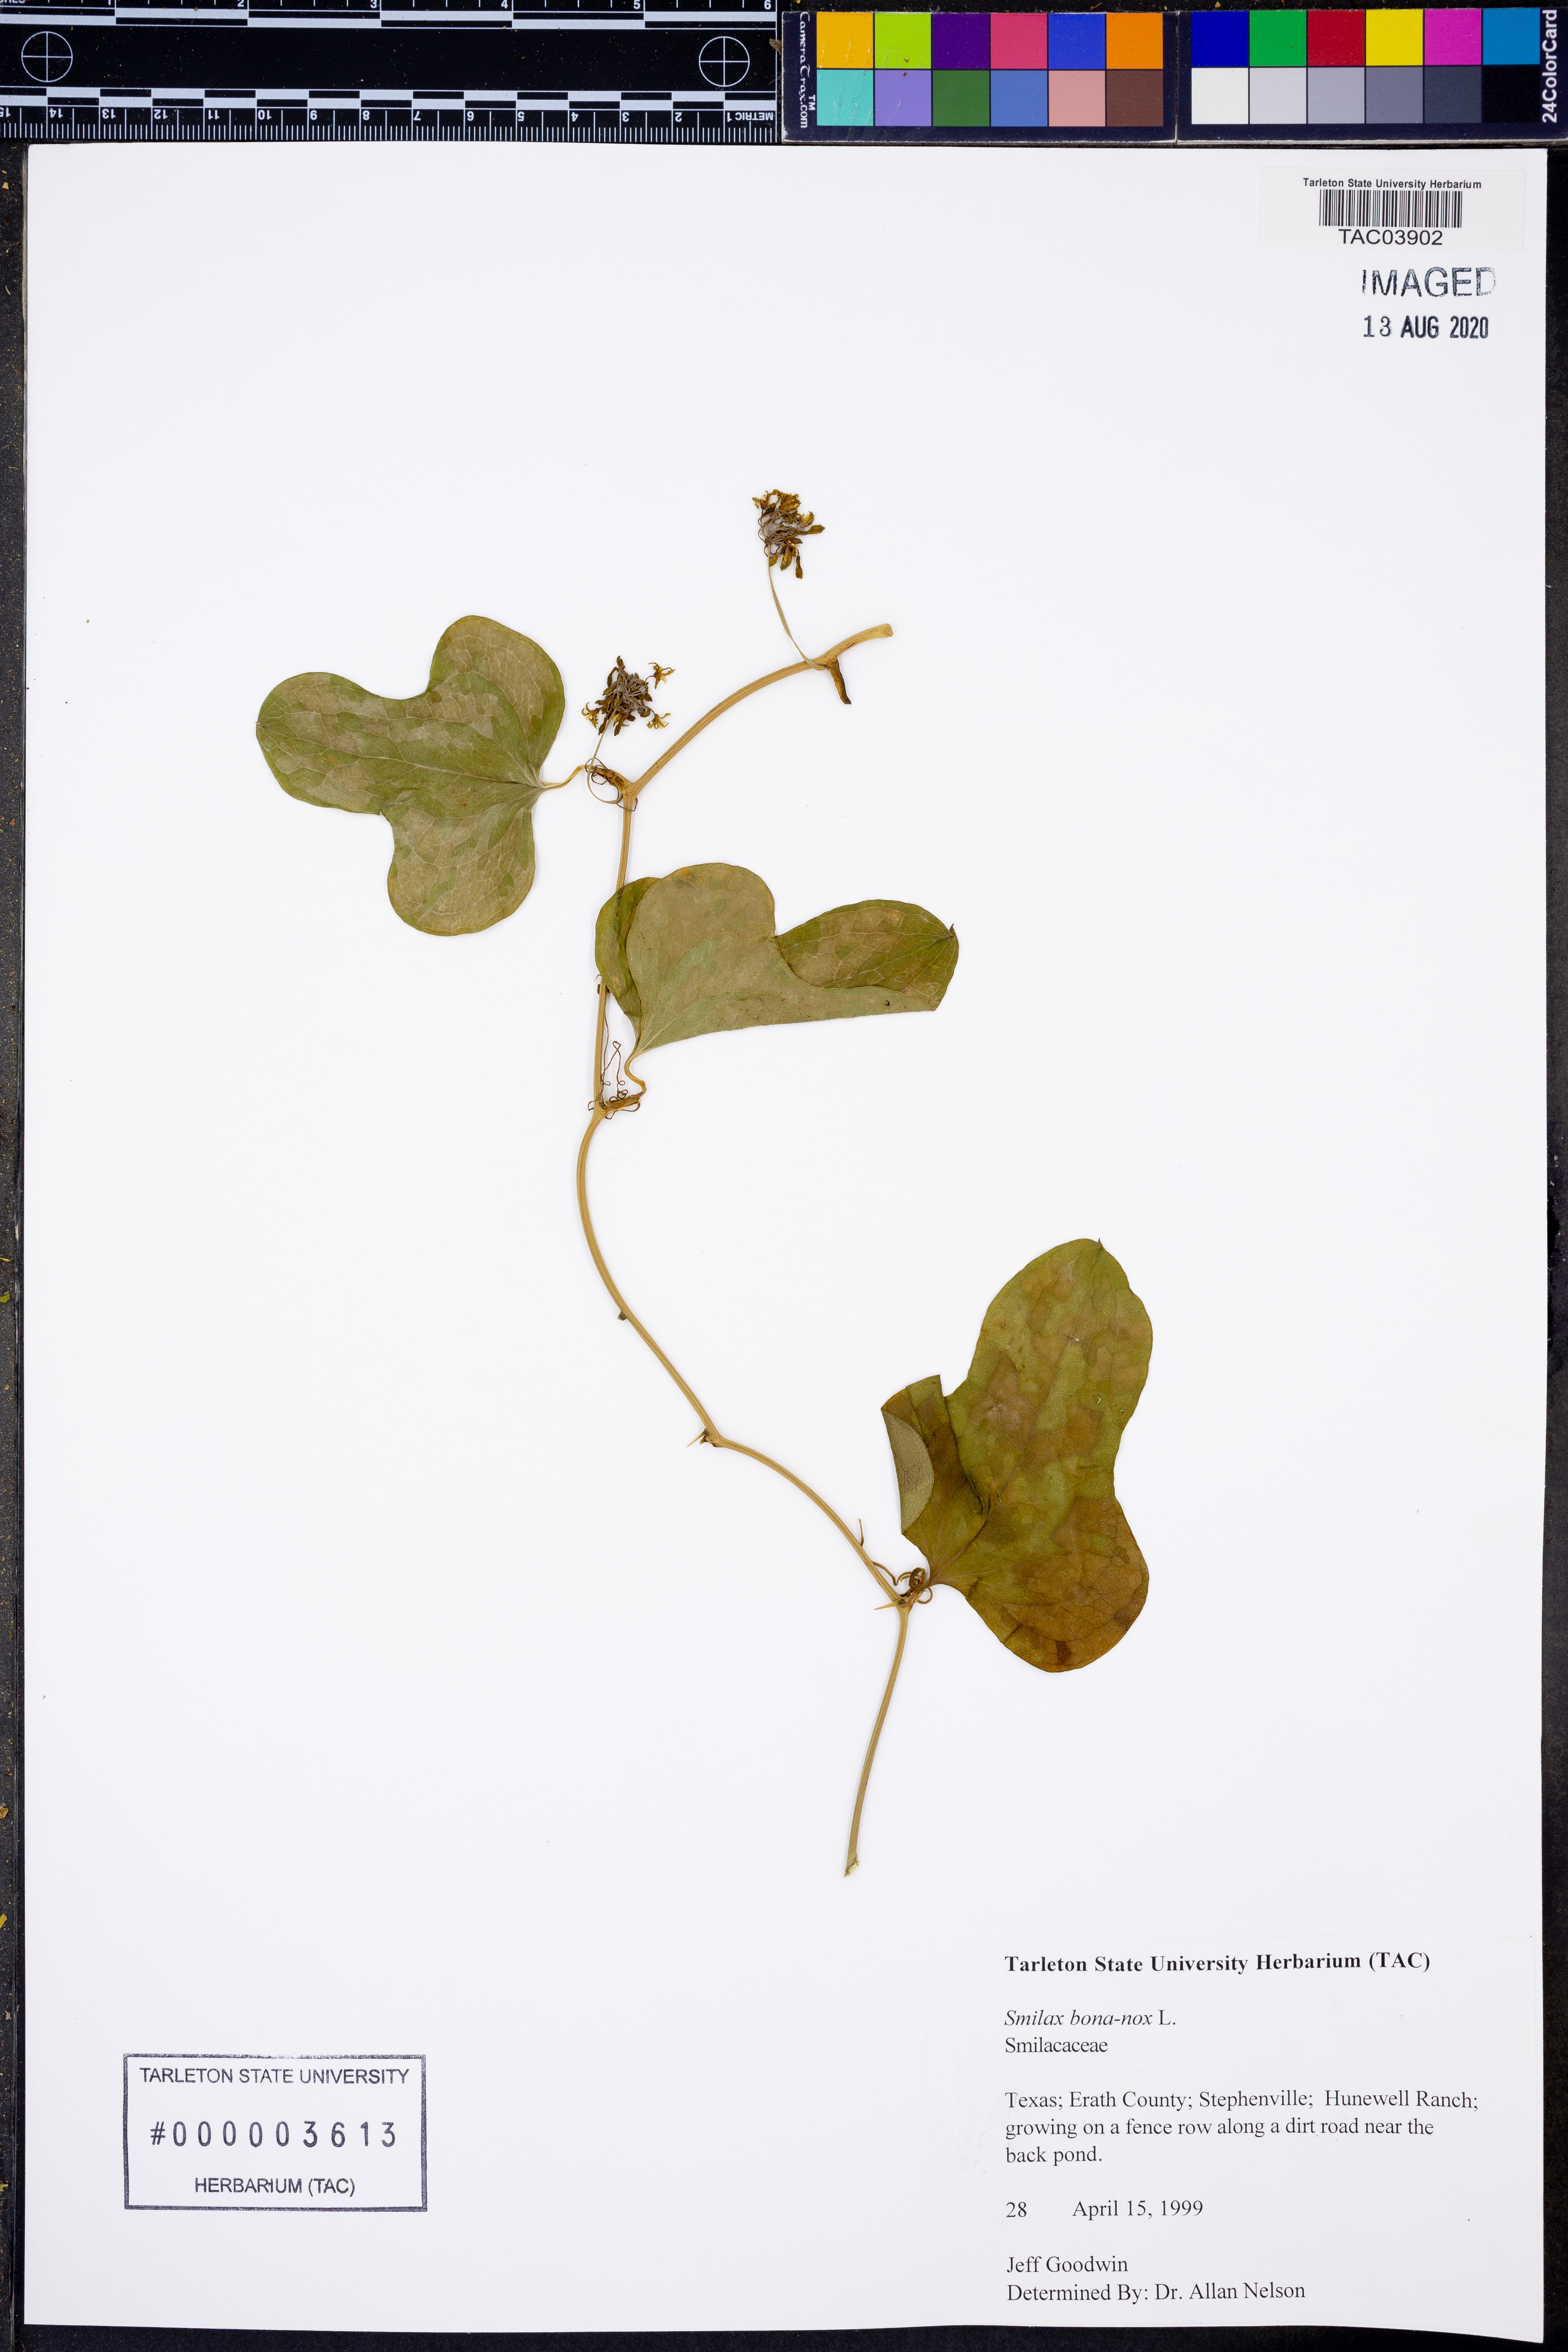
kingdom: Plantae
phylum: Tracheophyta
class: Liliopsida
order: Liliales
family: Smilacaceae
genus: Smilax
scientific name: Smilax bona-nox
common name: Catbrier
